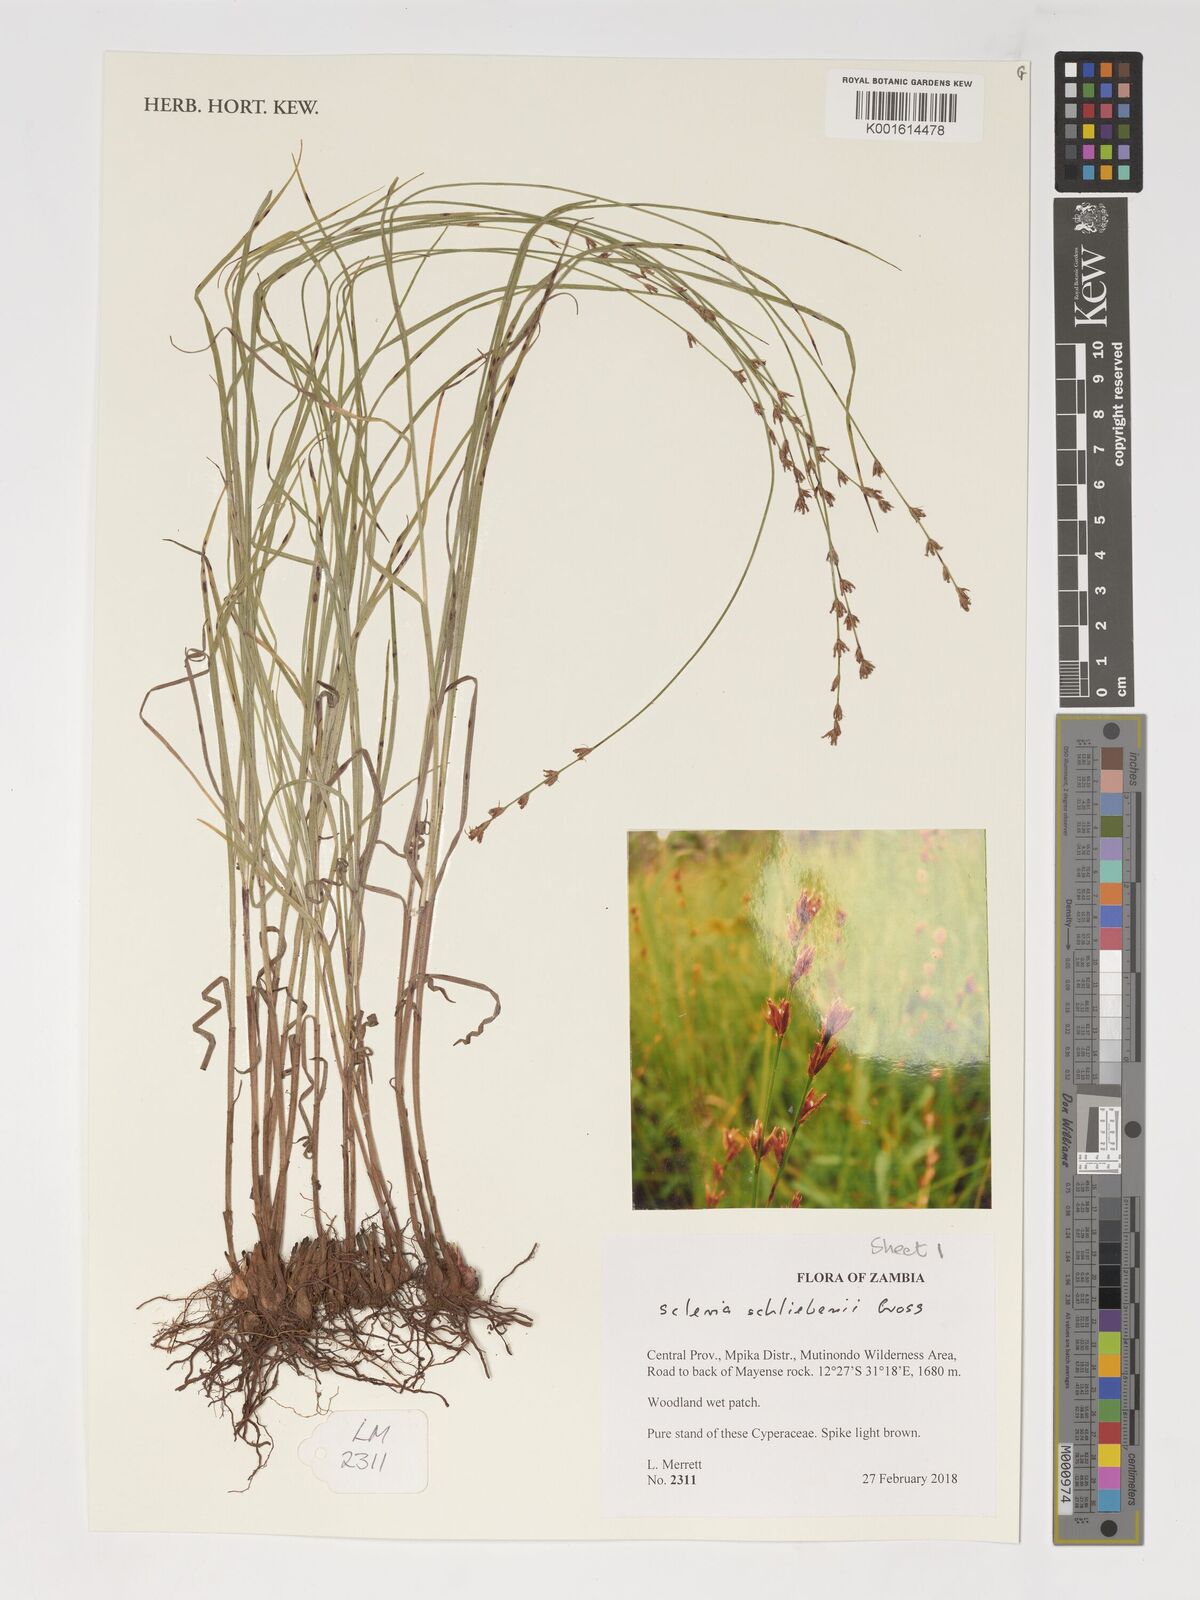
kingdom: Plantae
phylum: Tracheophyta
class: Liliopsida
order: Poales
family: Cyperaceae
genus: Scleria
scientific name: Scleria bulbifera
